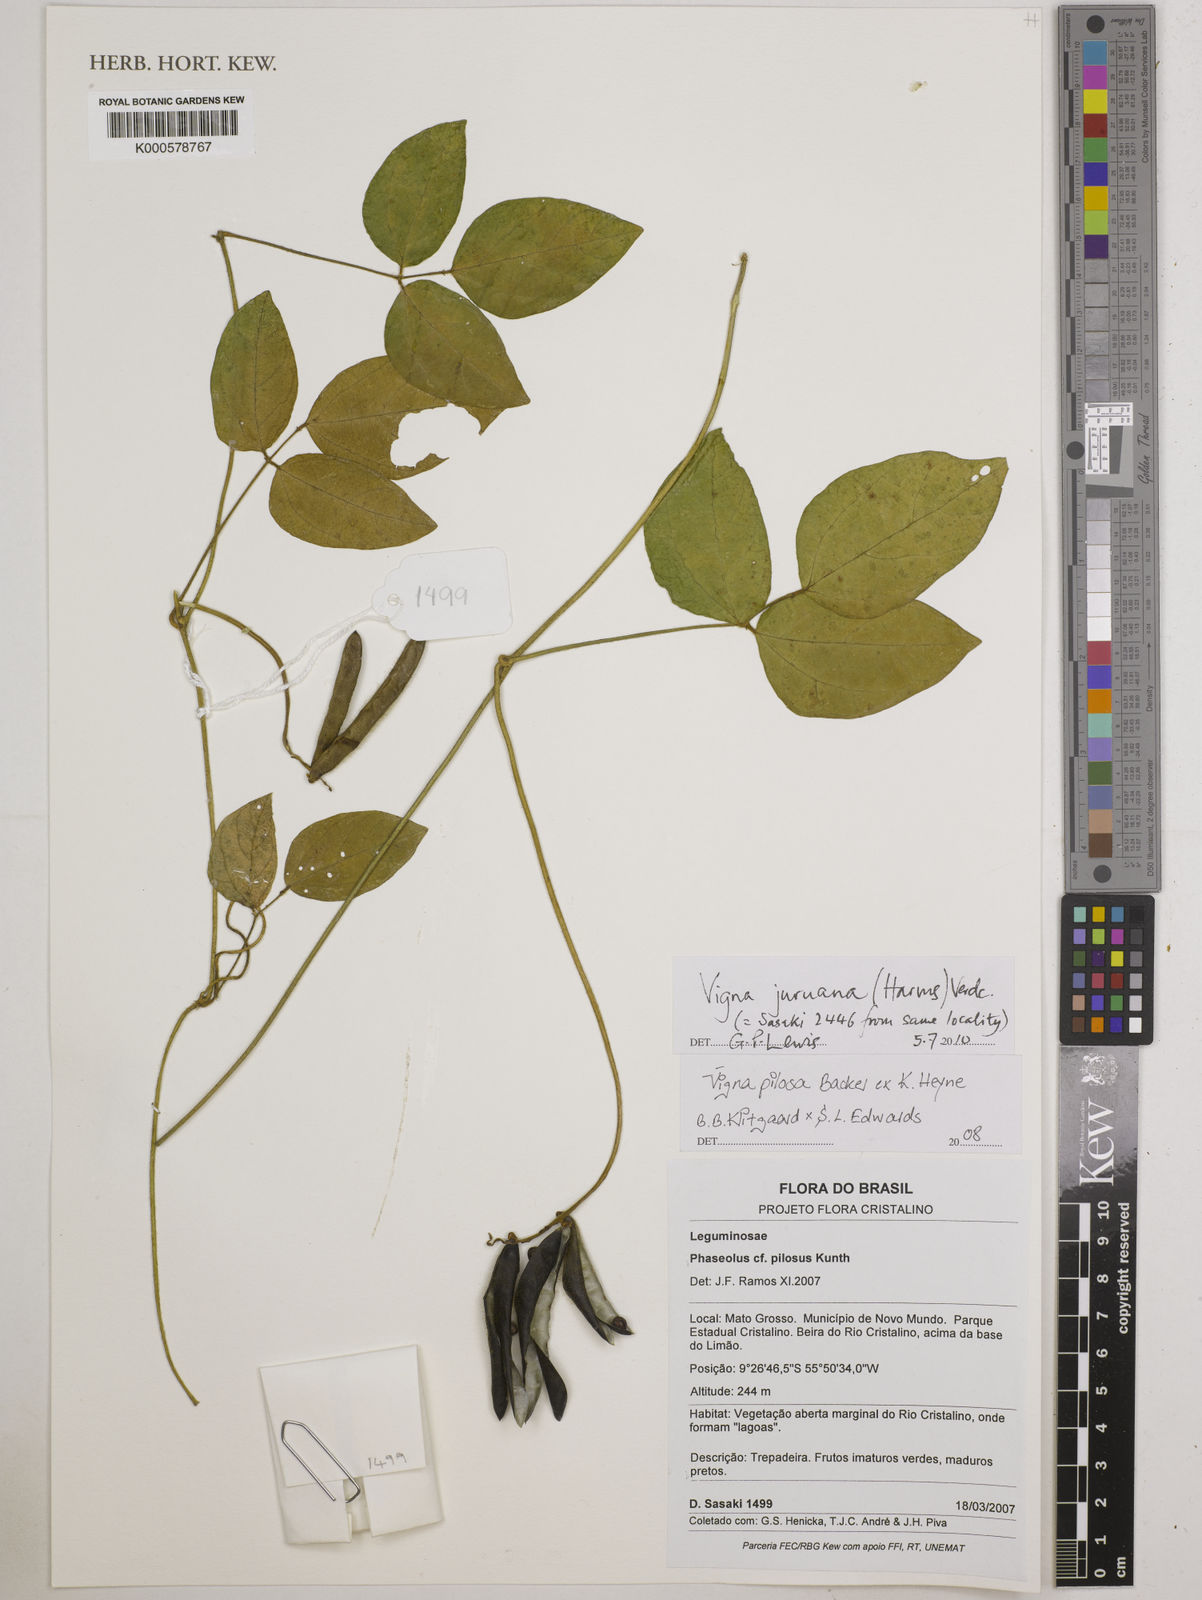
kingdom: Plantae
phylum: Tracheophyta
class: Magnoliopsida
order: Fabales
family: Fabaceae
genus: Vigna
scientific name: Vigna
